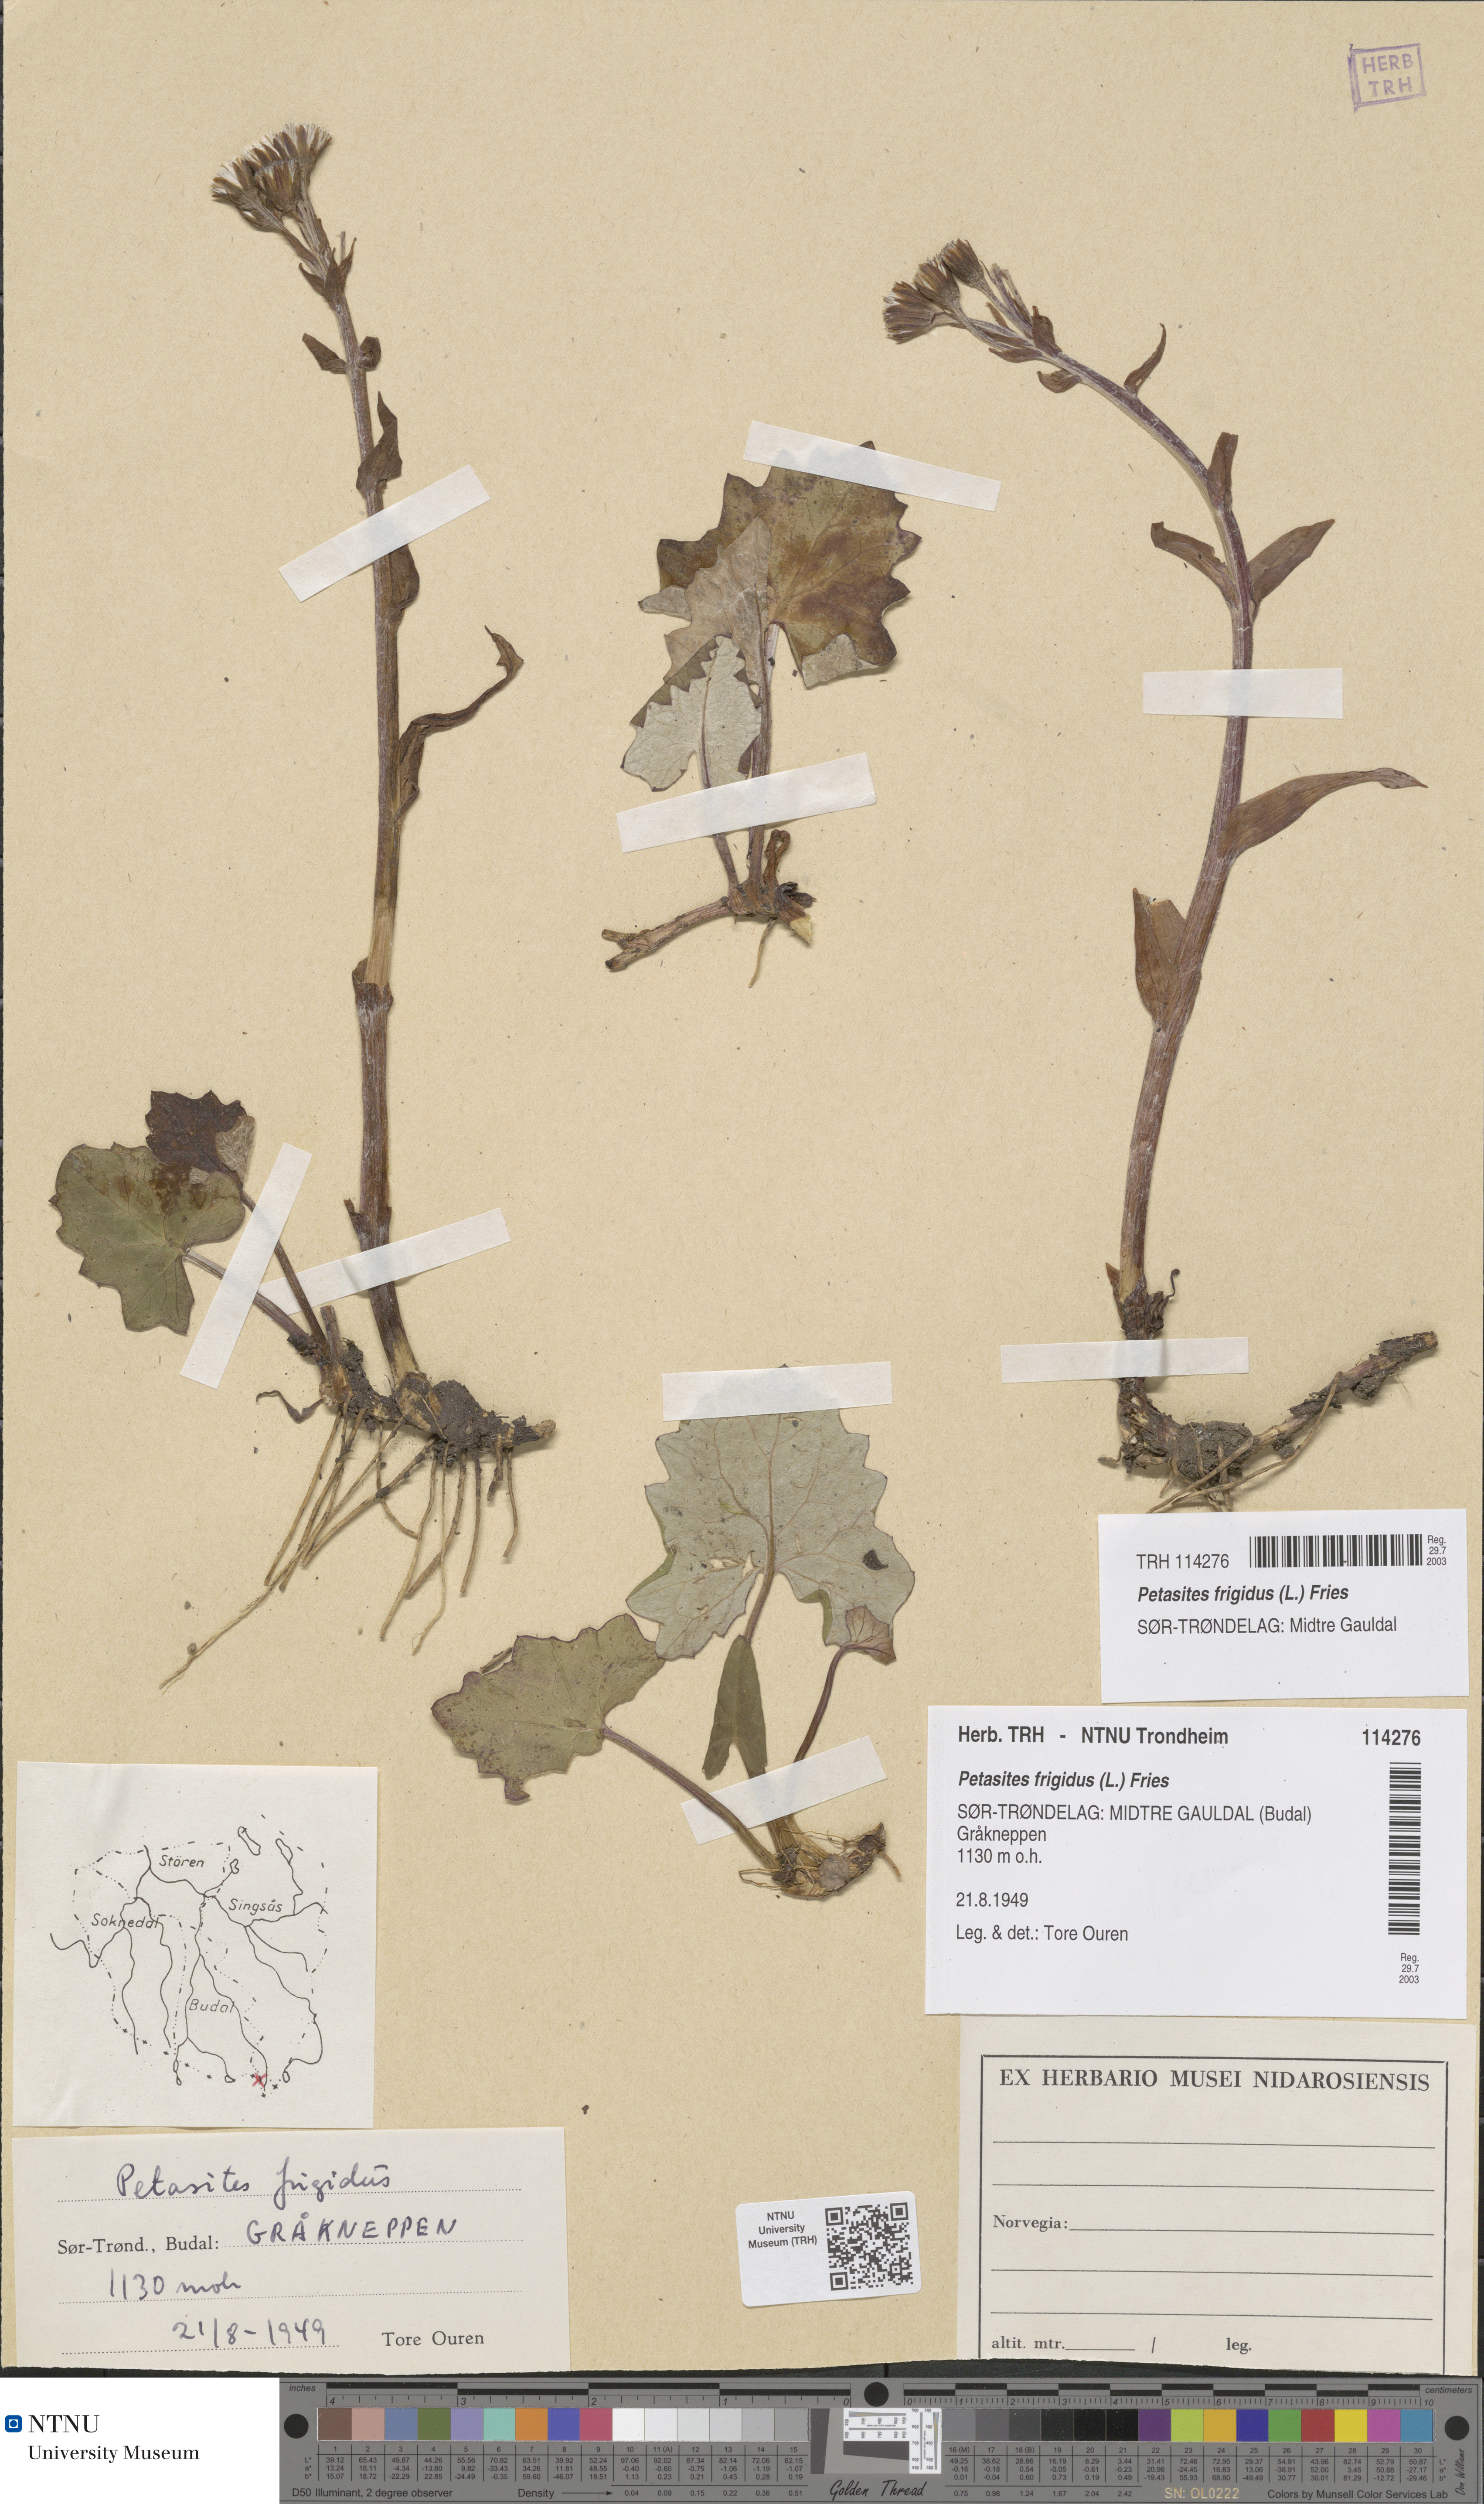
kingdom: Plantae
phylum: Tracheophyta
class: Magnoliopsida
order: Asterales
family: Asteraceae
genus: Petasites
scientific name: Petasites frigidus
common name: Arctic butterbur
